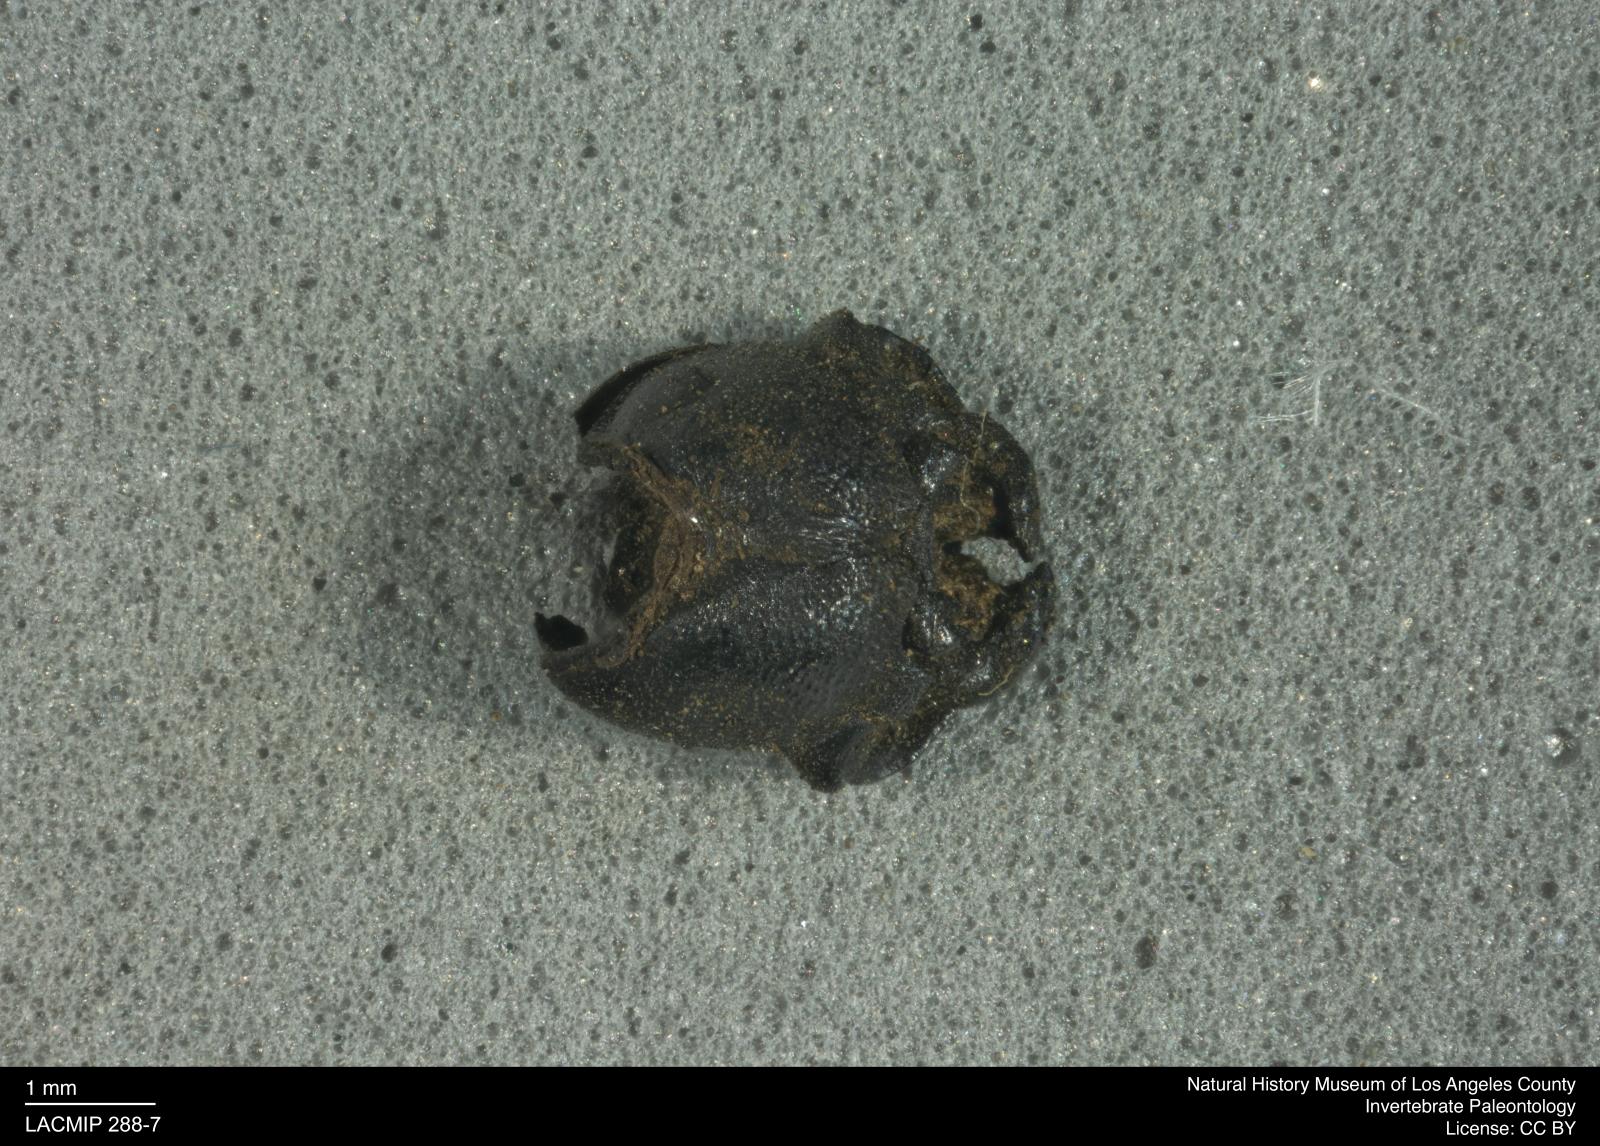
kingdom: Animalia
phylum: Arthropoda
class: Insecta
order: Coleoptera
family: Tenebrionidae
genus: Coniontis
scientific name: Coniontis abdominalis
